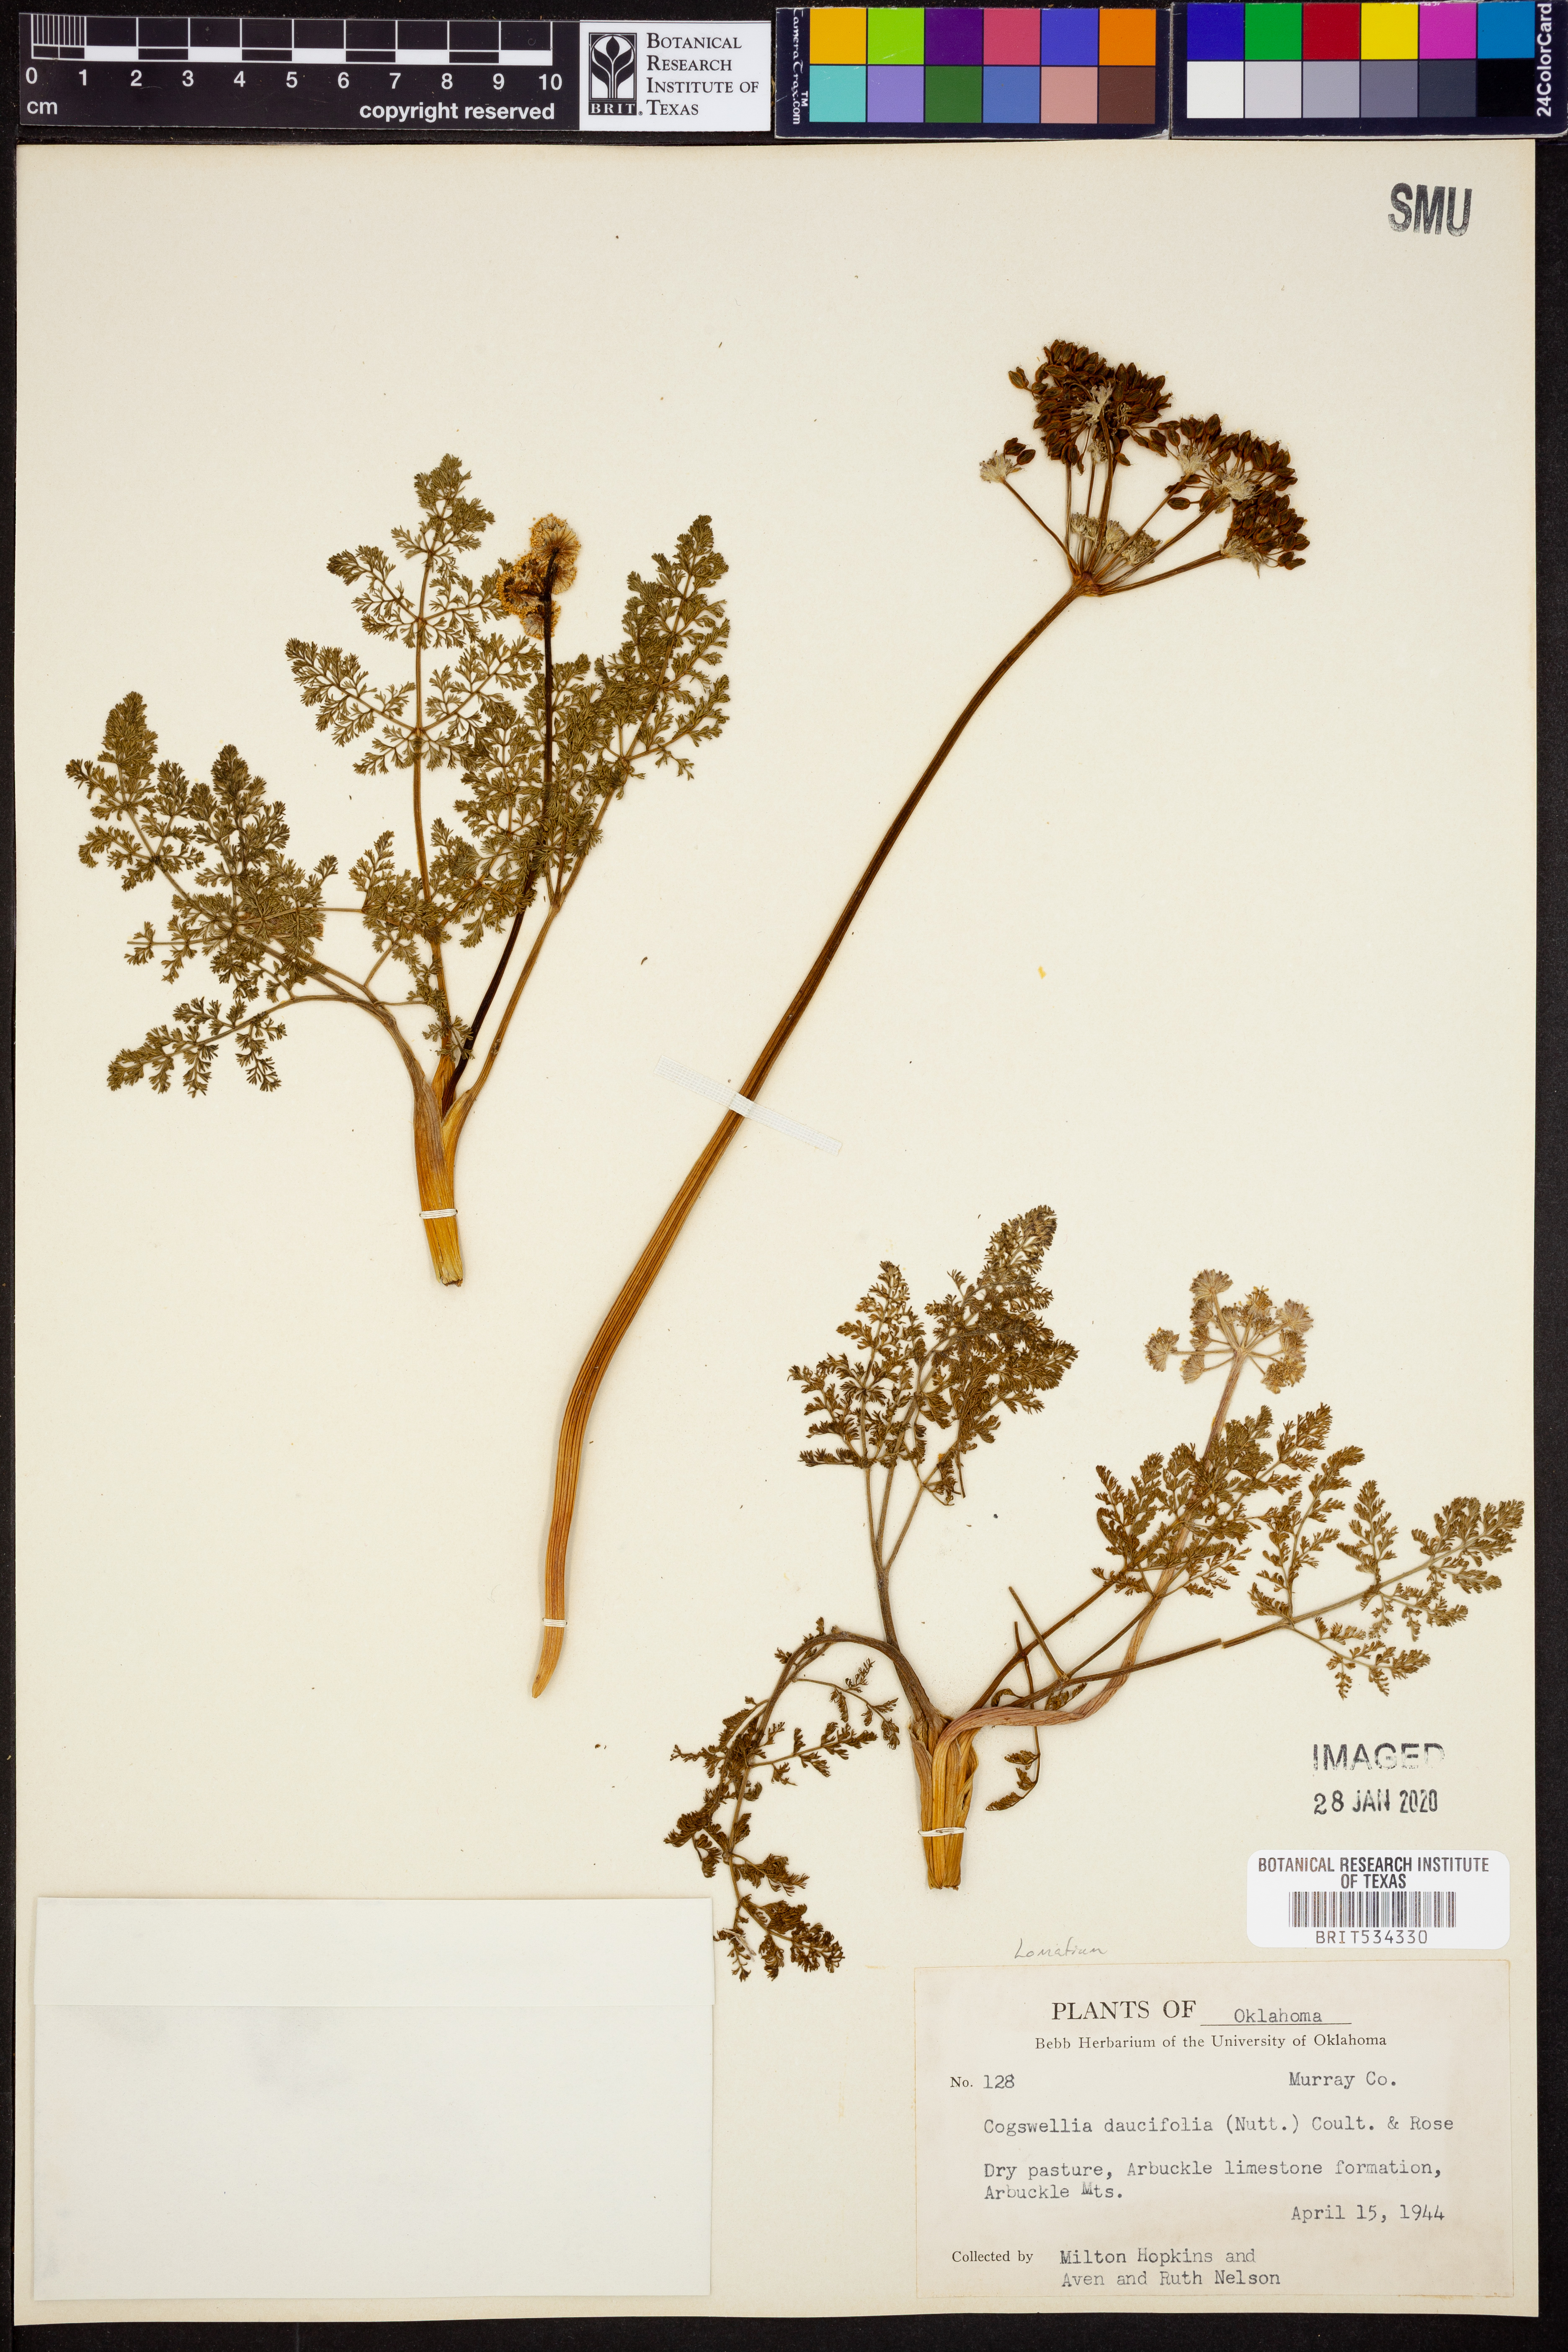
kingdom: Plantae
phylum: Tracheophyta
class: Magnoliopsida
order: Apiales
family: Apiaceae
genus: Lomatium
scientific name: Lomatium foeniculaceum
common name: Desert-parsley
